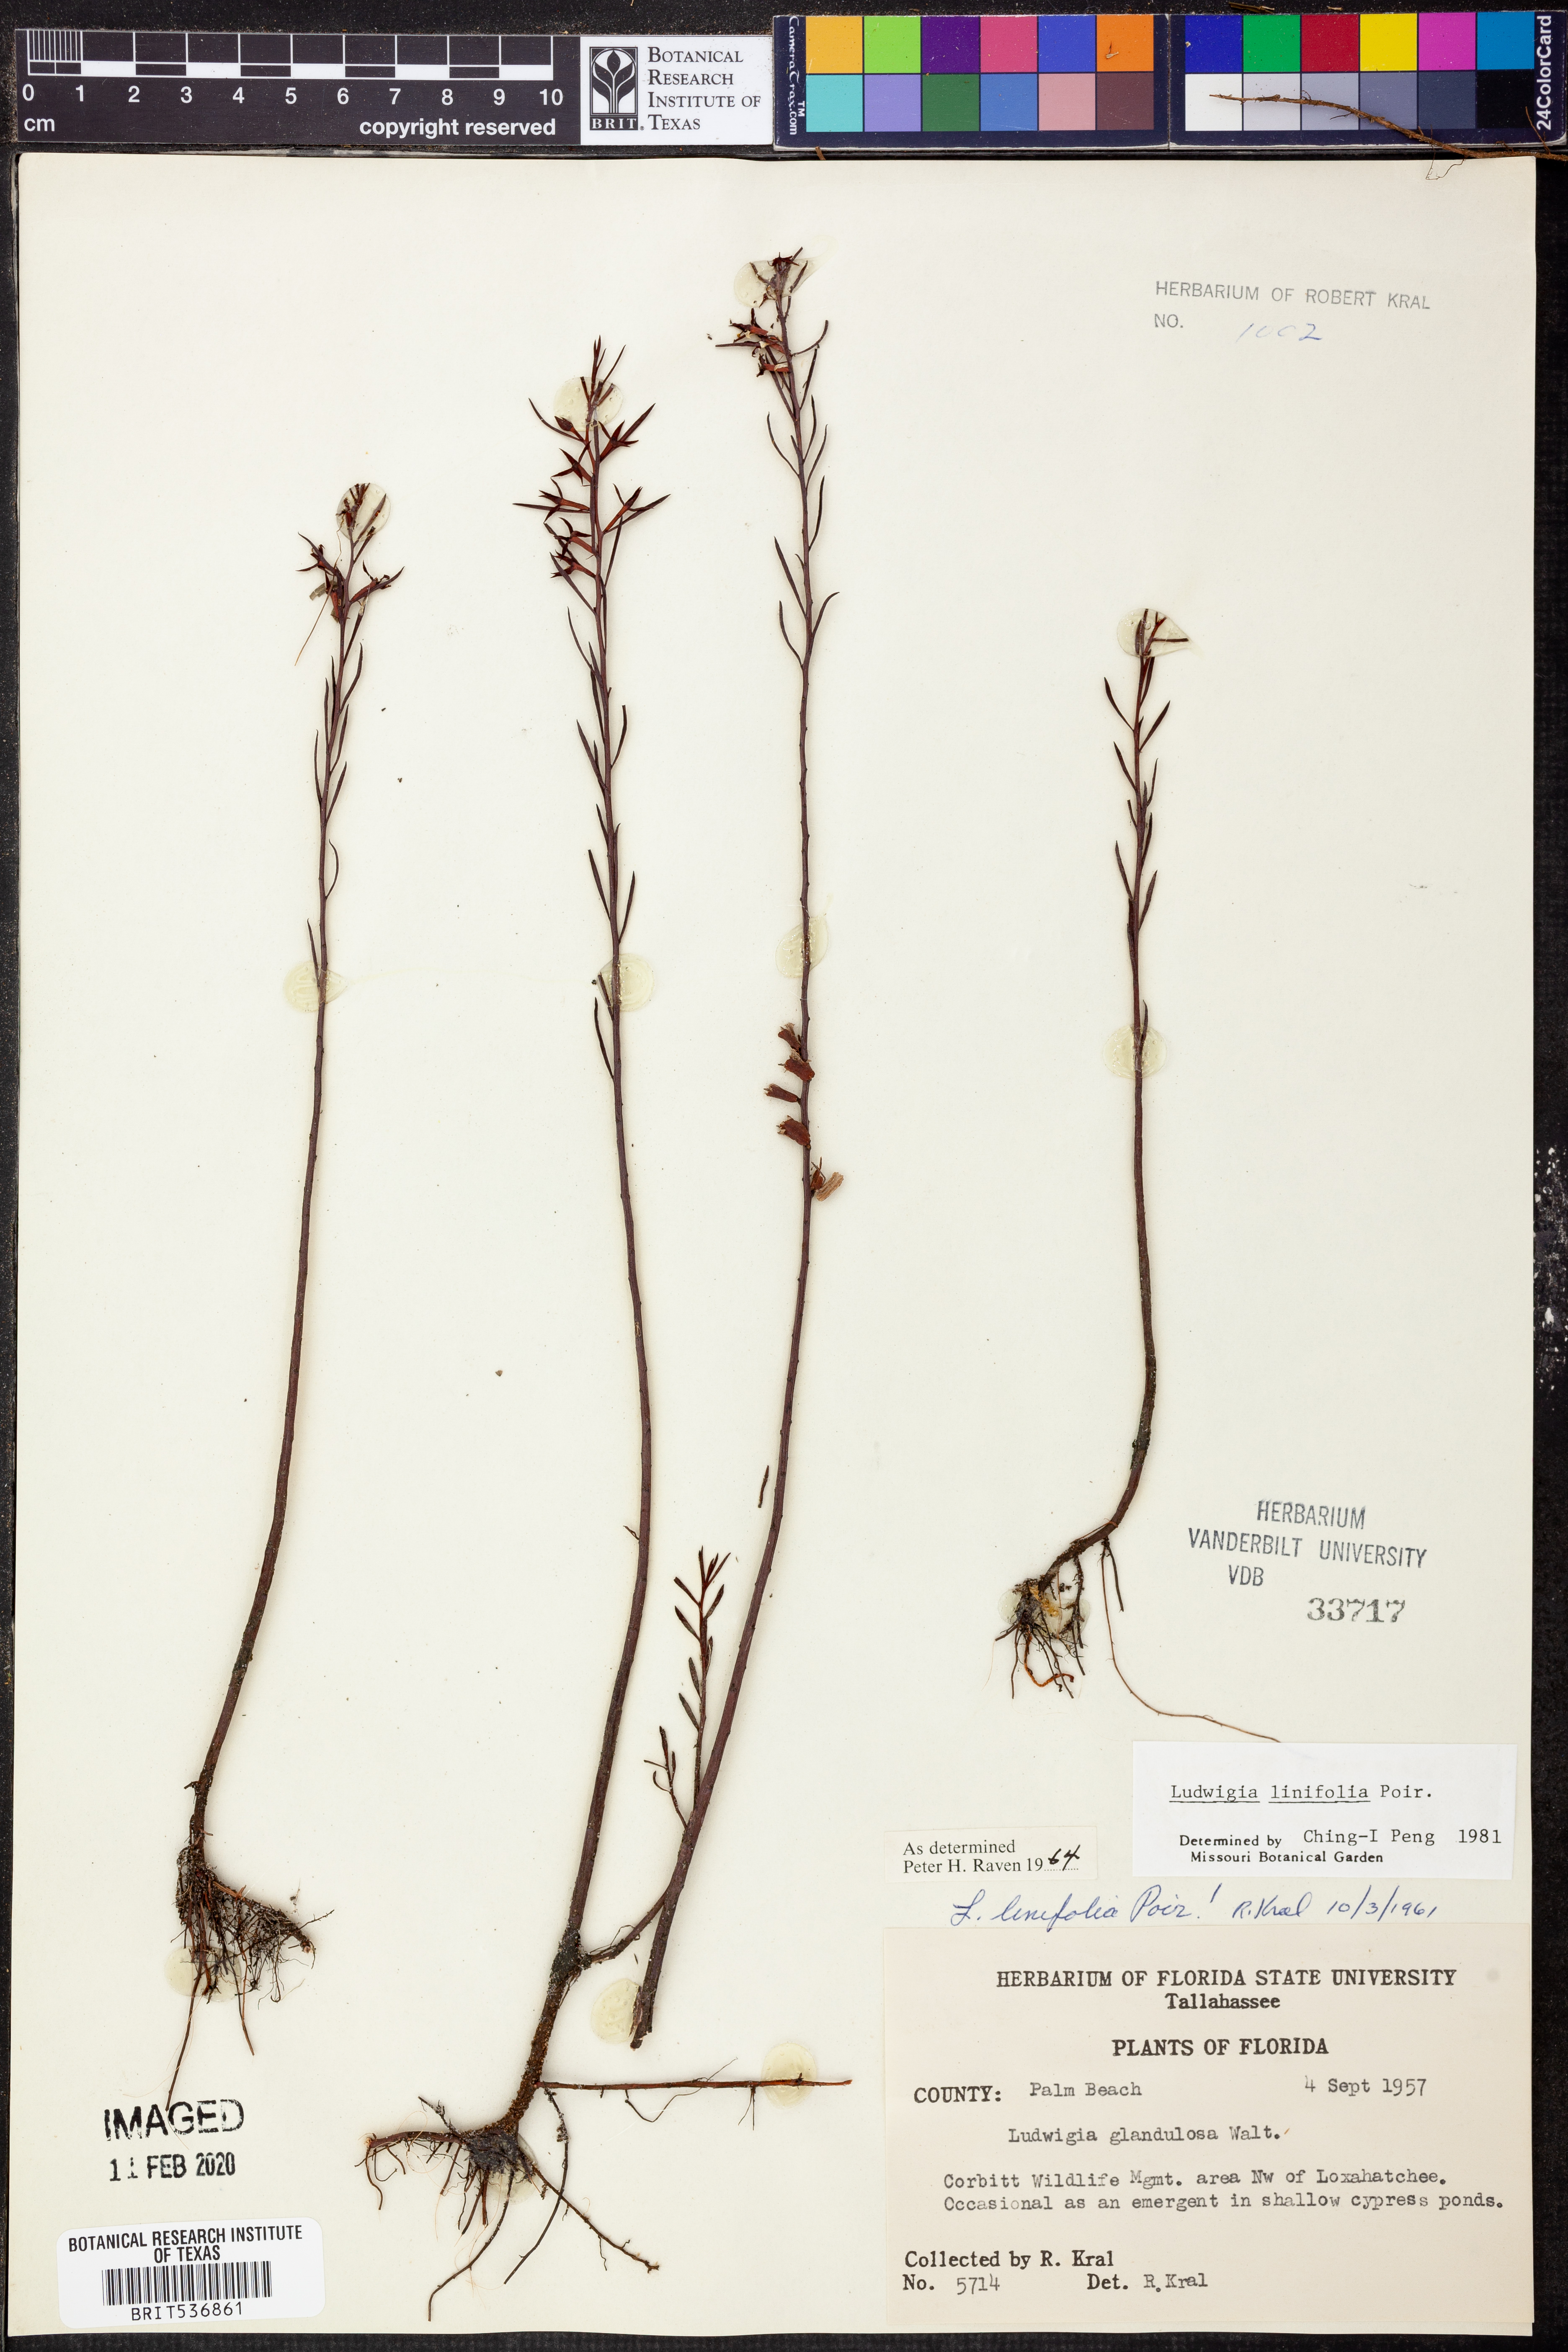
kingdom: Plantae
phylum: Tracheophyta
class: Magnoliopsida
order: Myrtales
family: Onagraceae
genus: Ludwigia
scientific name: Ludwigia linifolia
